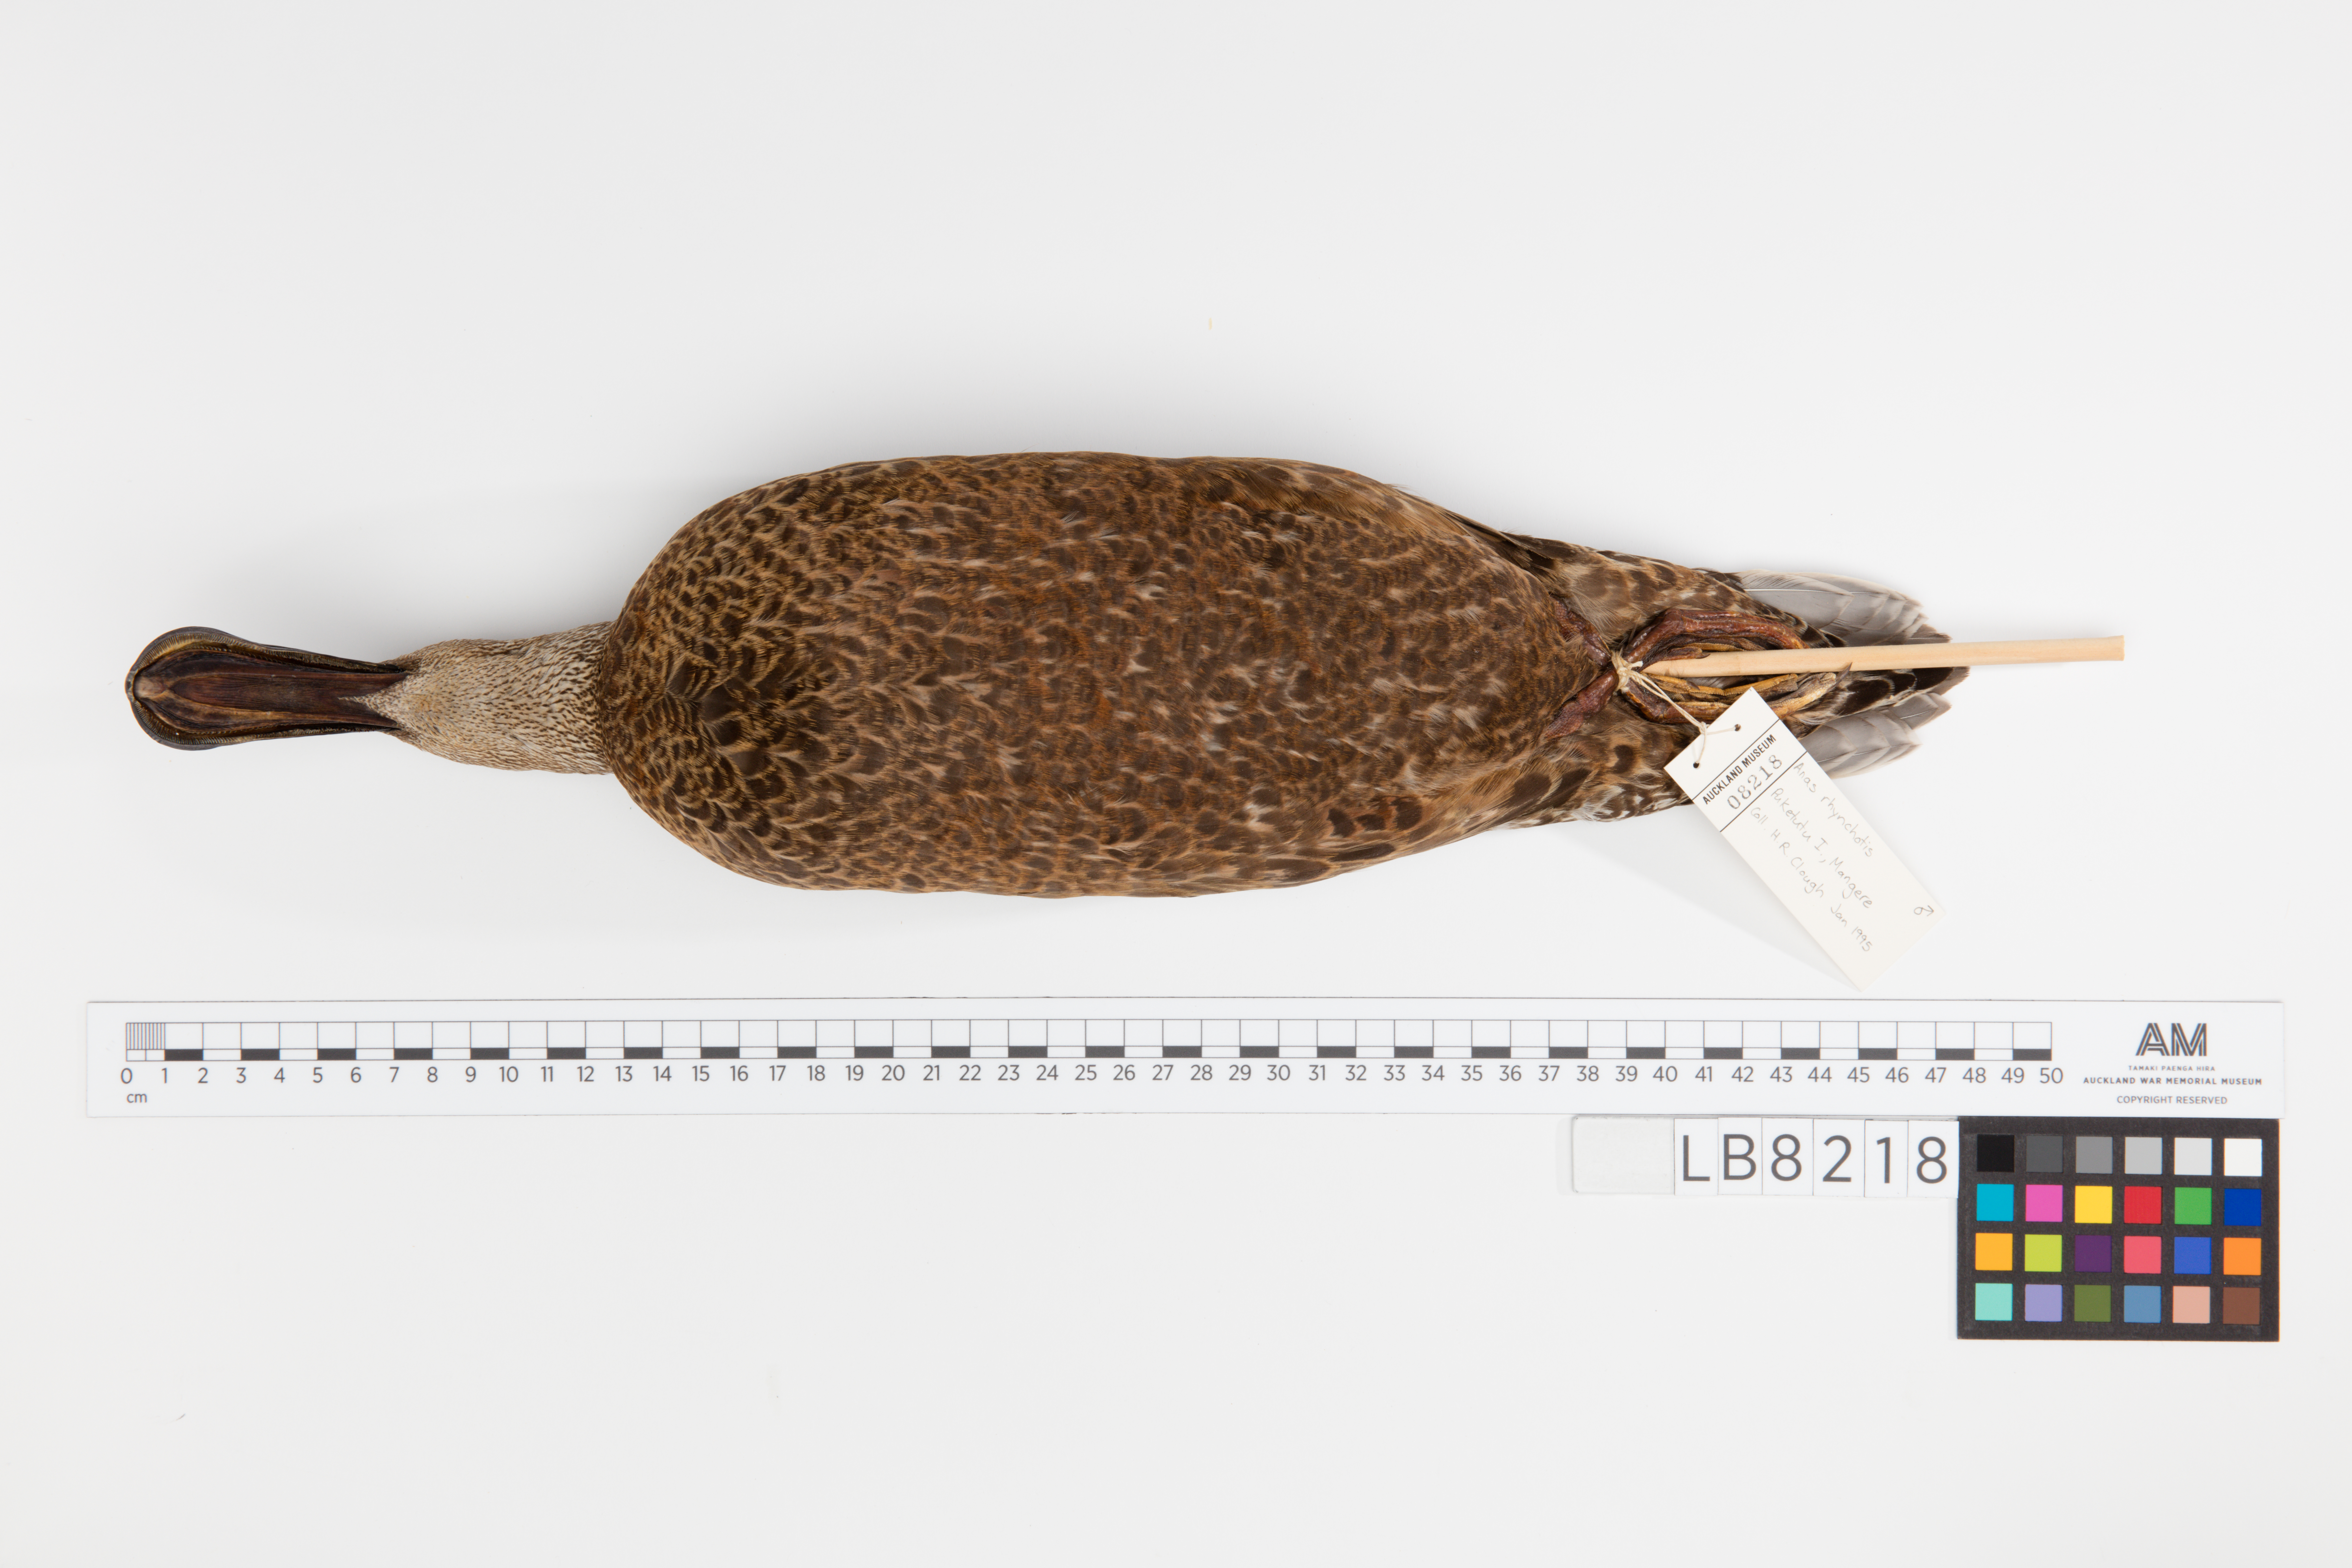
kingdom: Animalia
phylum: Chordata
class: Aves
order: Anseriformes
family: Anatidae
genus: Spatula
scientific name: Spatula rhynchotis
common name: Australian shoveler
